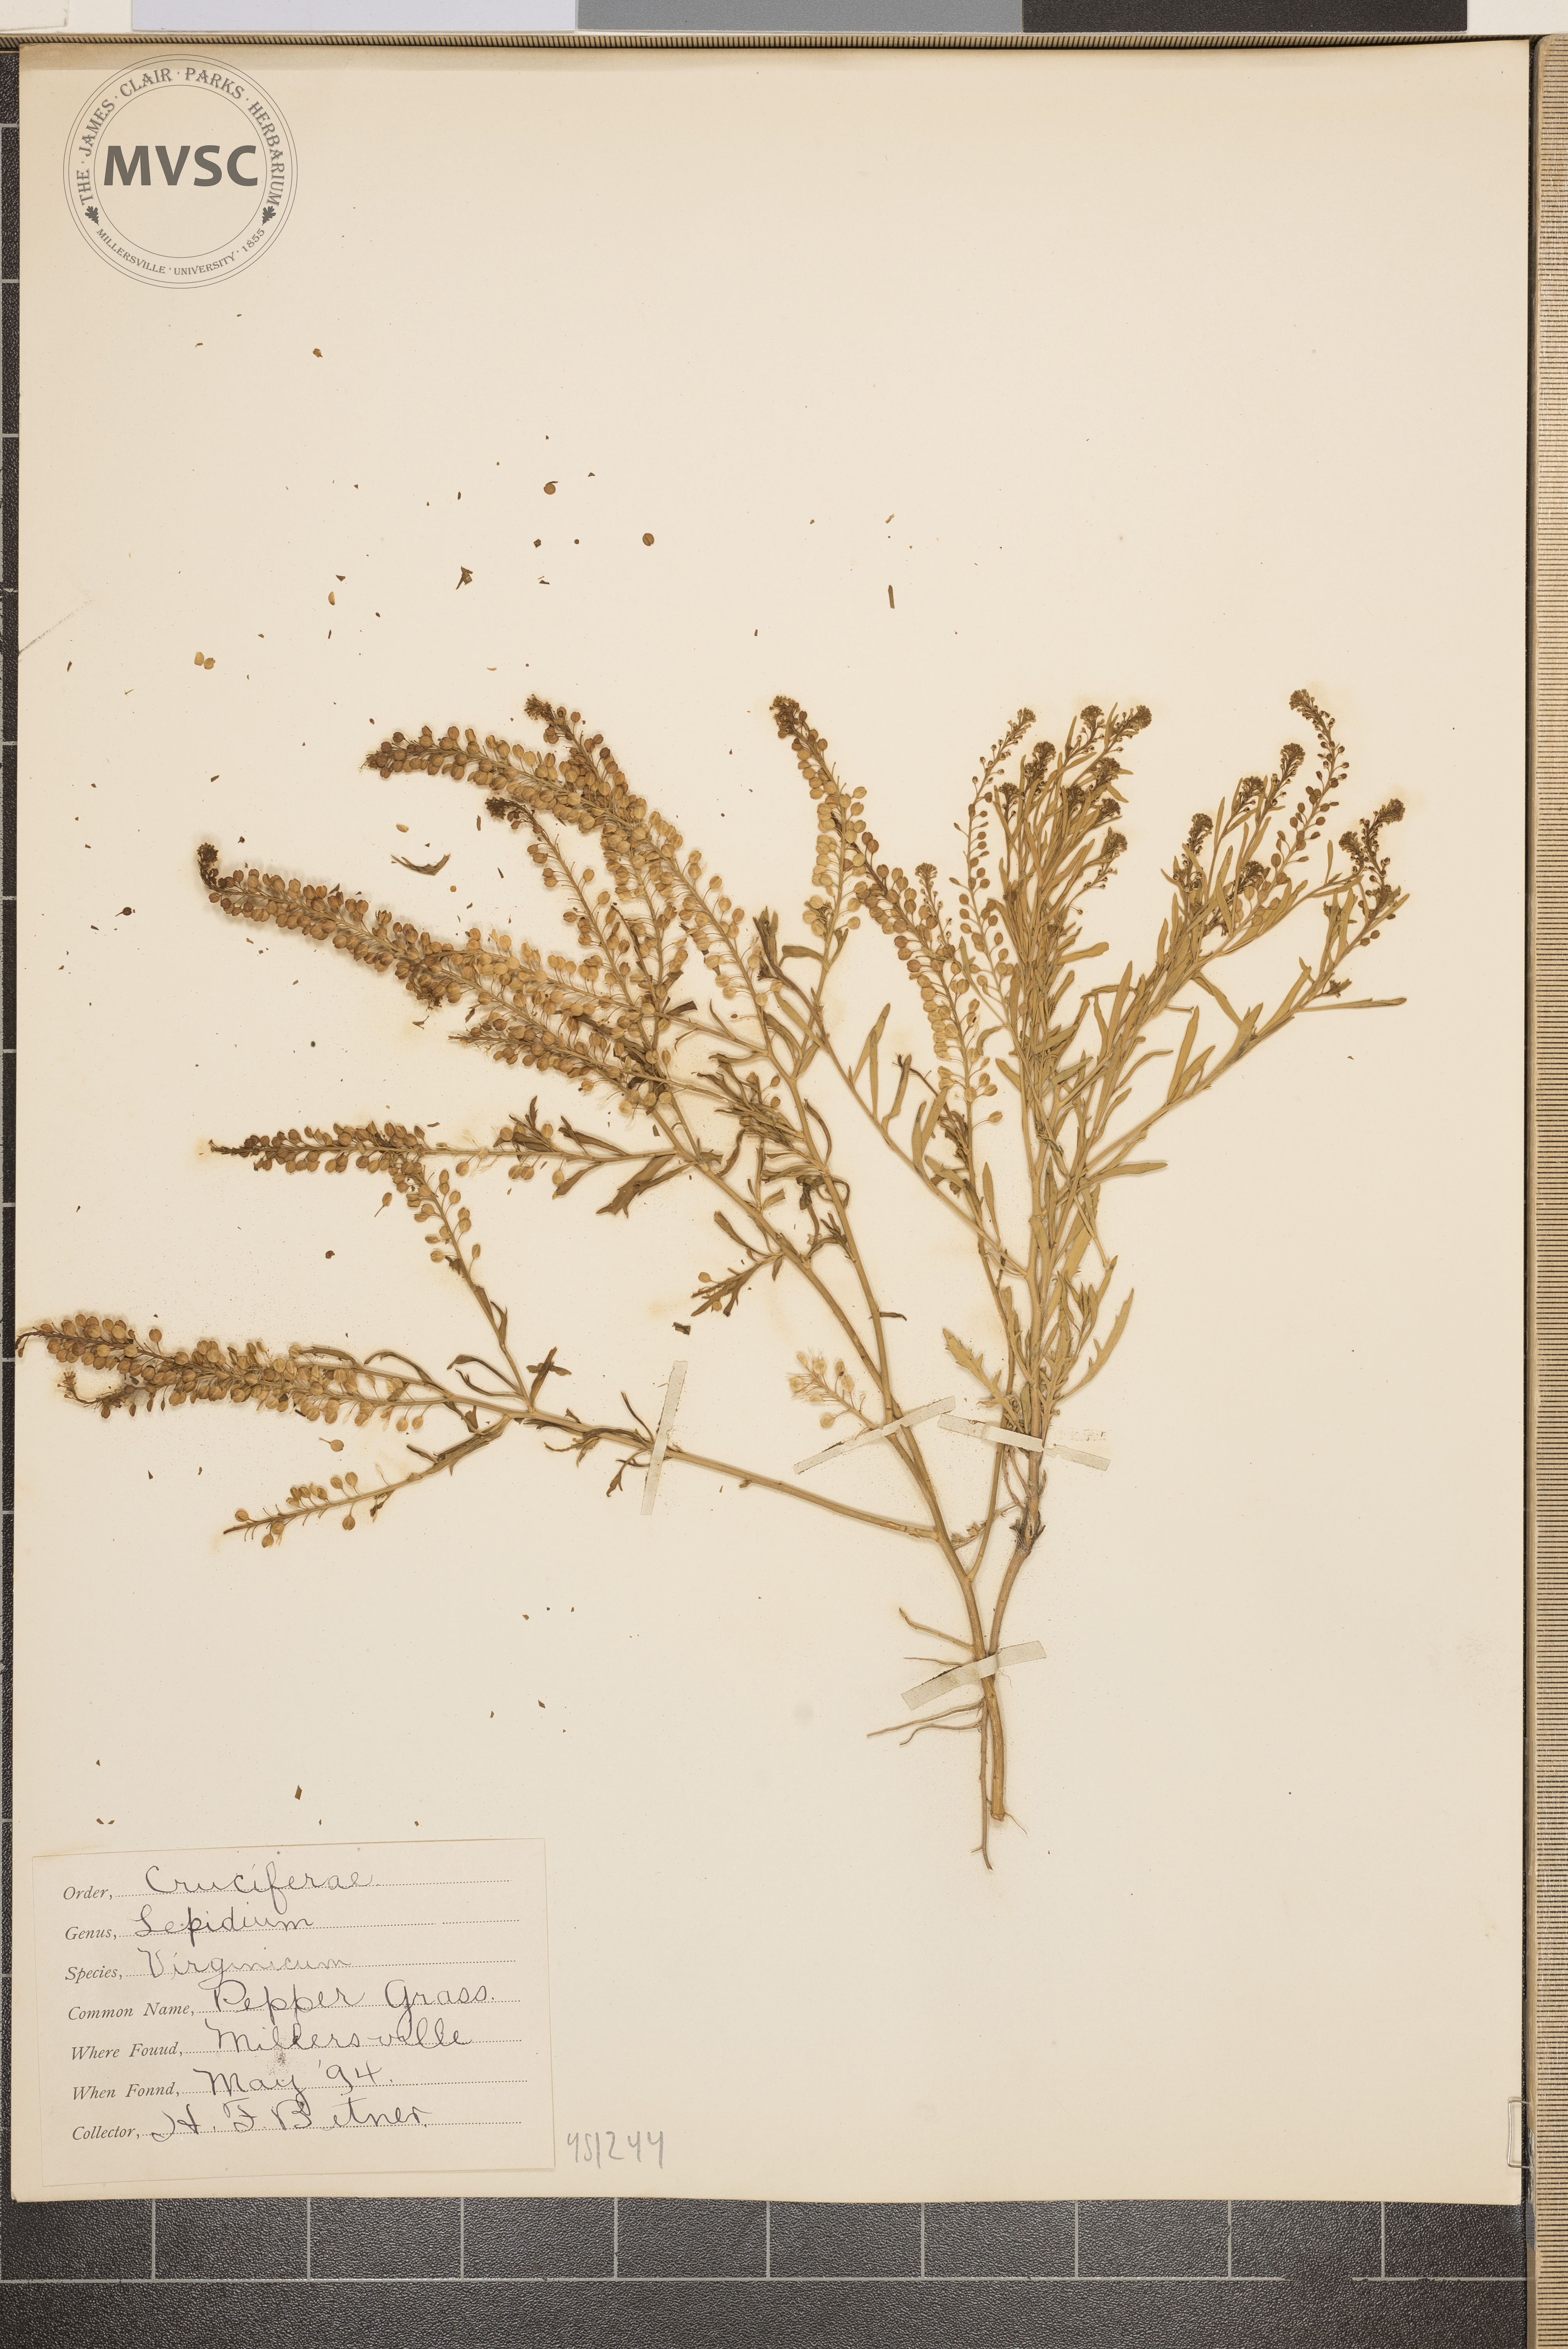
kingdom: Plantae
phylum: Tracheophyta
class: Magnoliopsida
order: Brassicales
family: Brassicaceae
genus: Lepidium
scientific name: Lepidium virginicum
